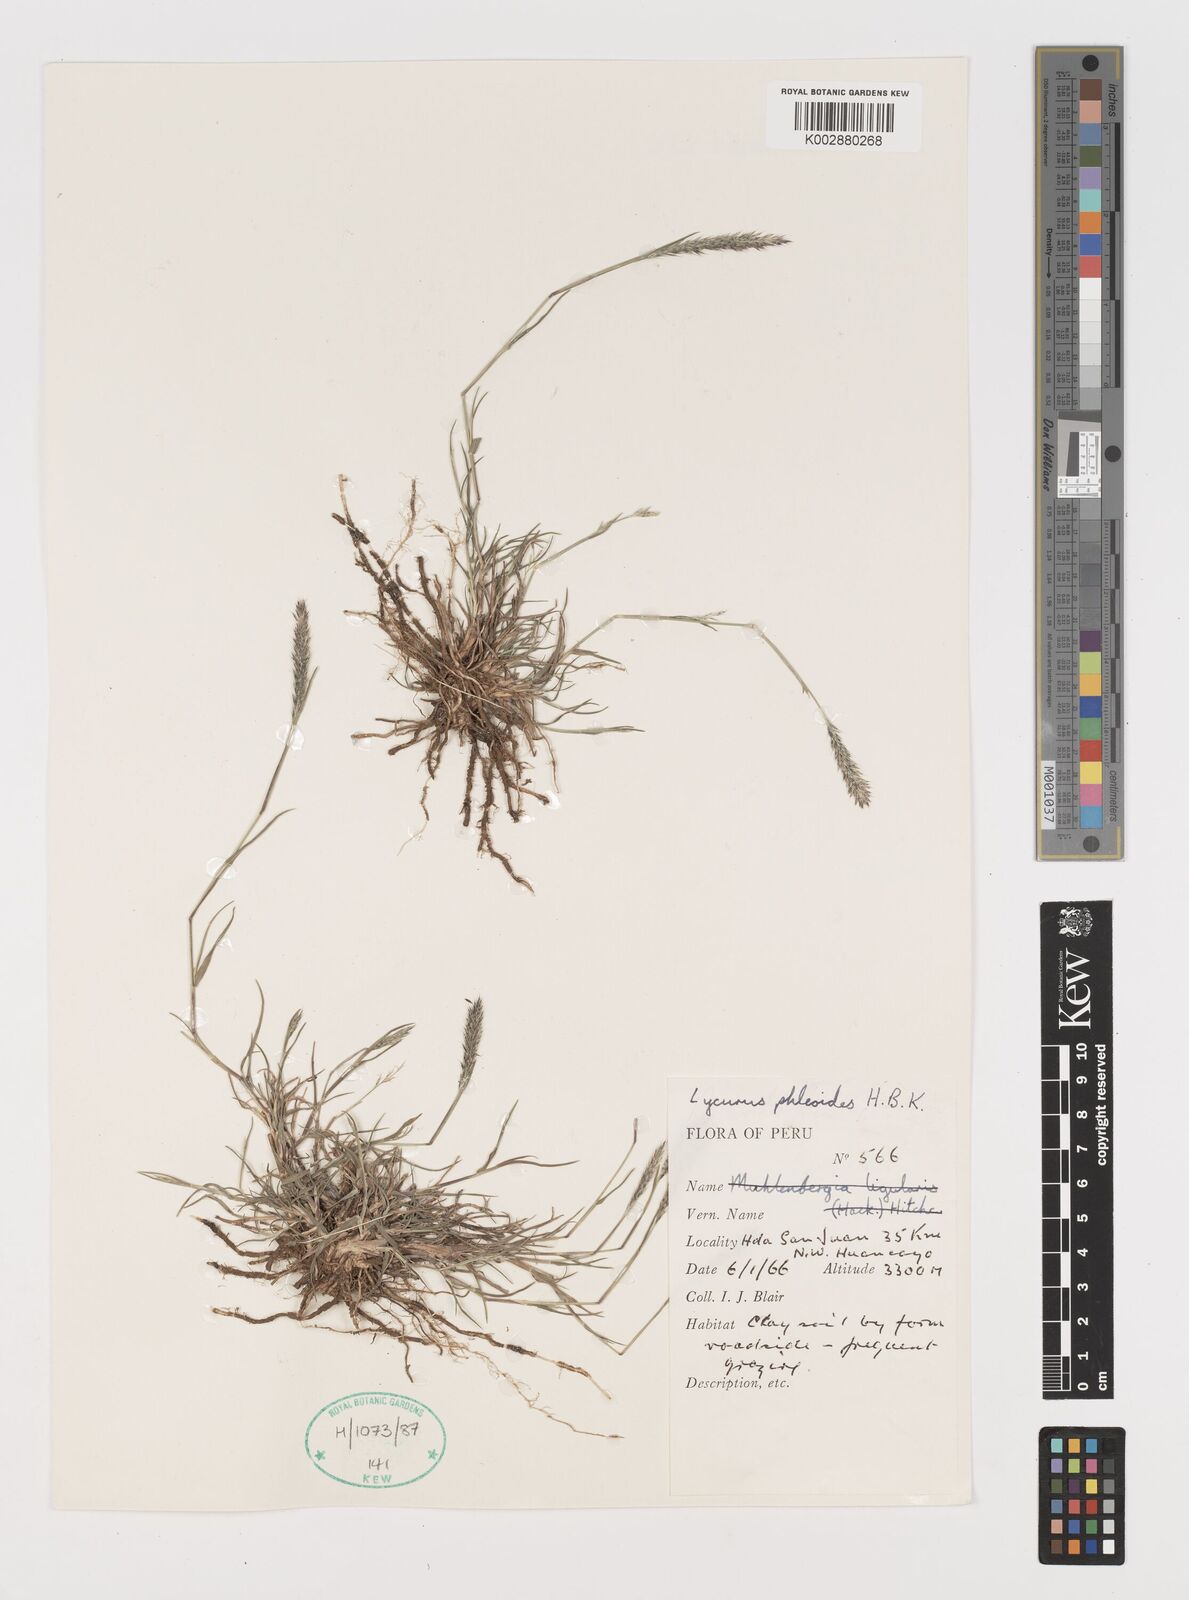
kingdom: Plantae
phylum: Tracheophyta
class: Liliopsida
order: Poales
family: Poaceae
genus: Muhlenbergia
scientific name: Muhlenbergia phalaroides
